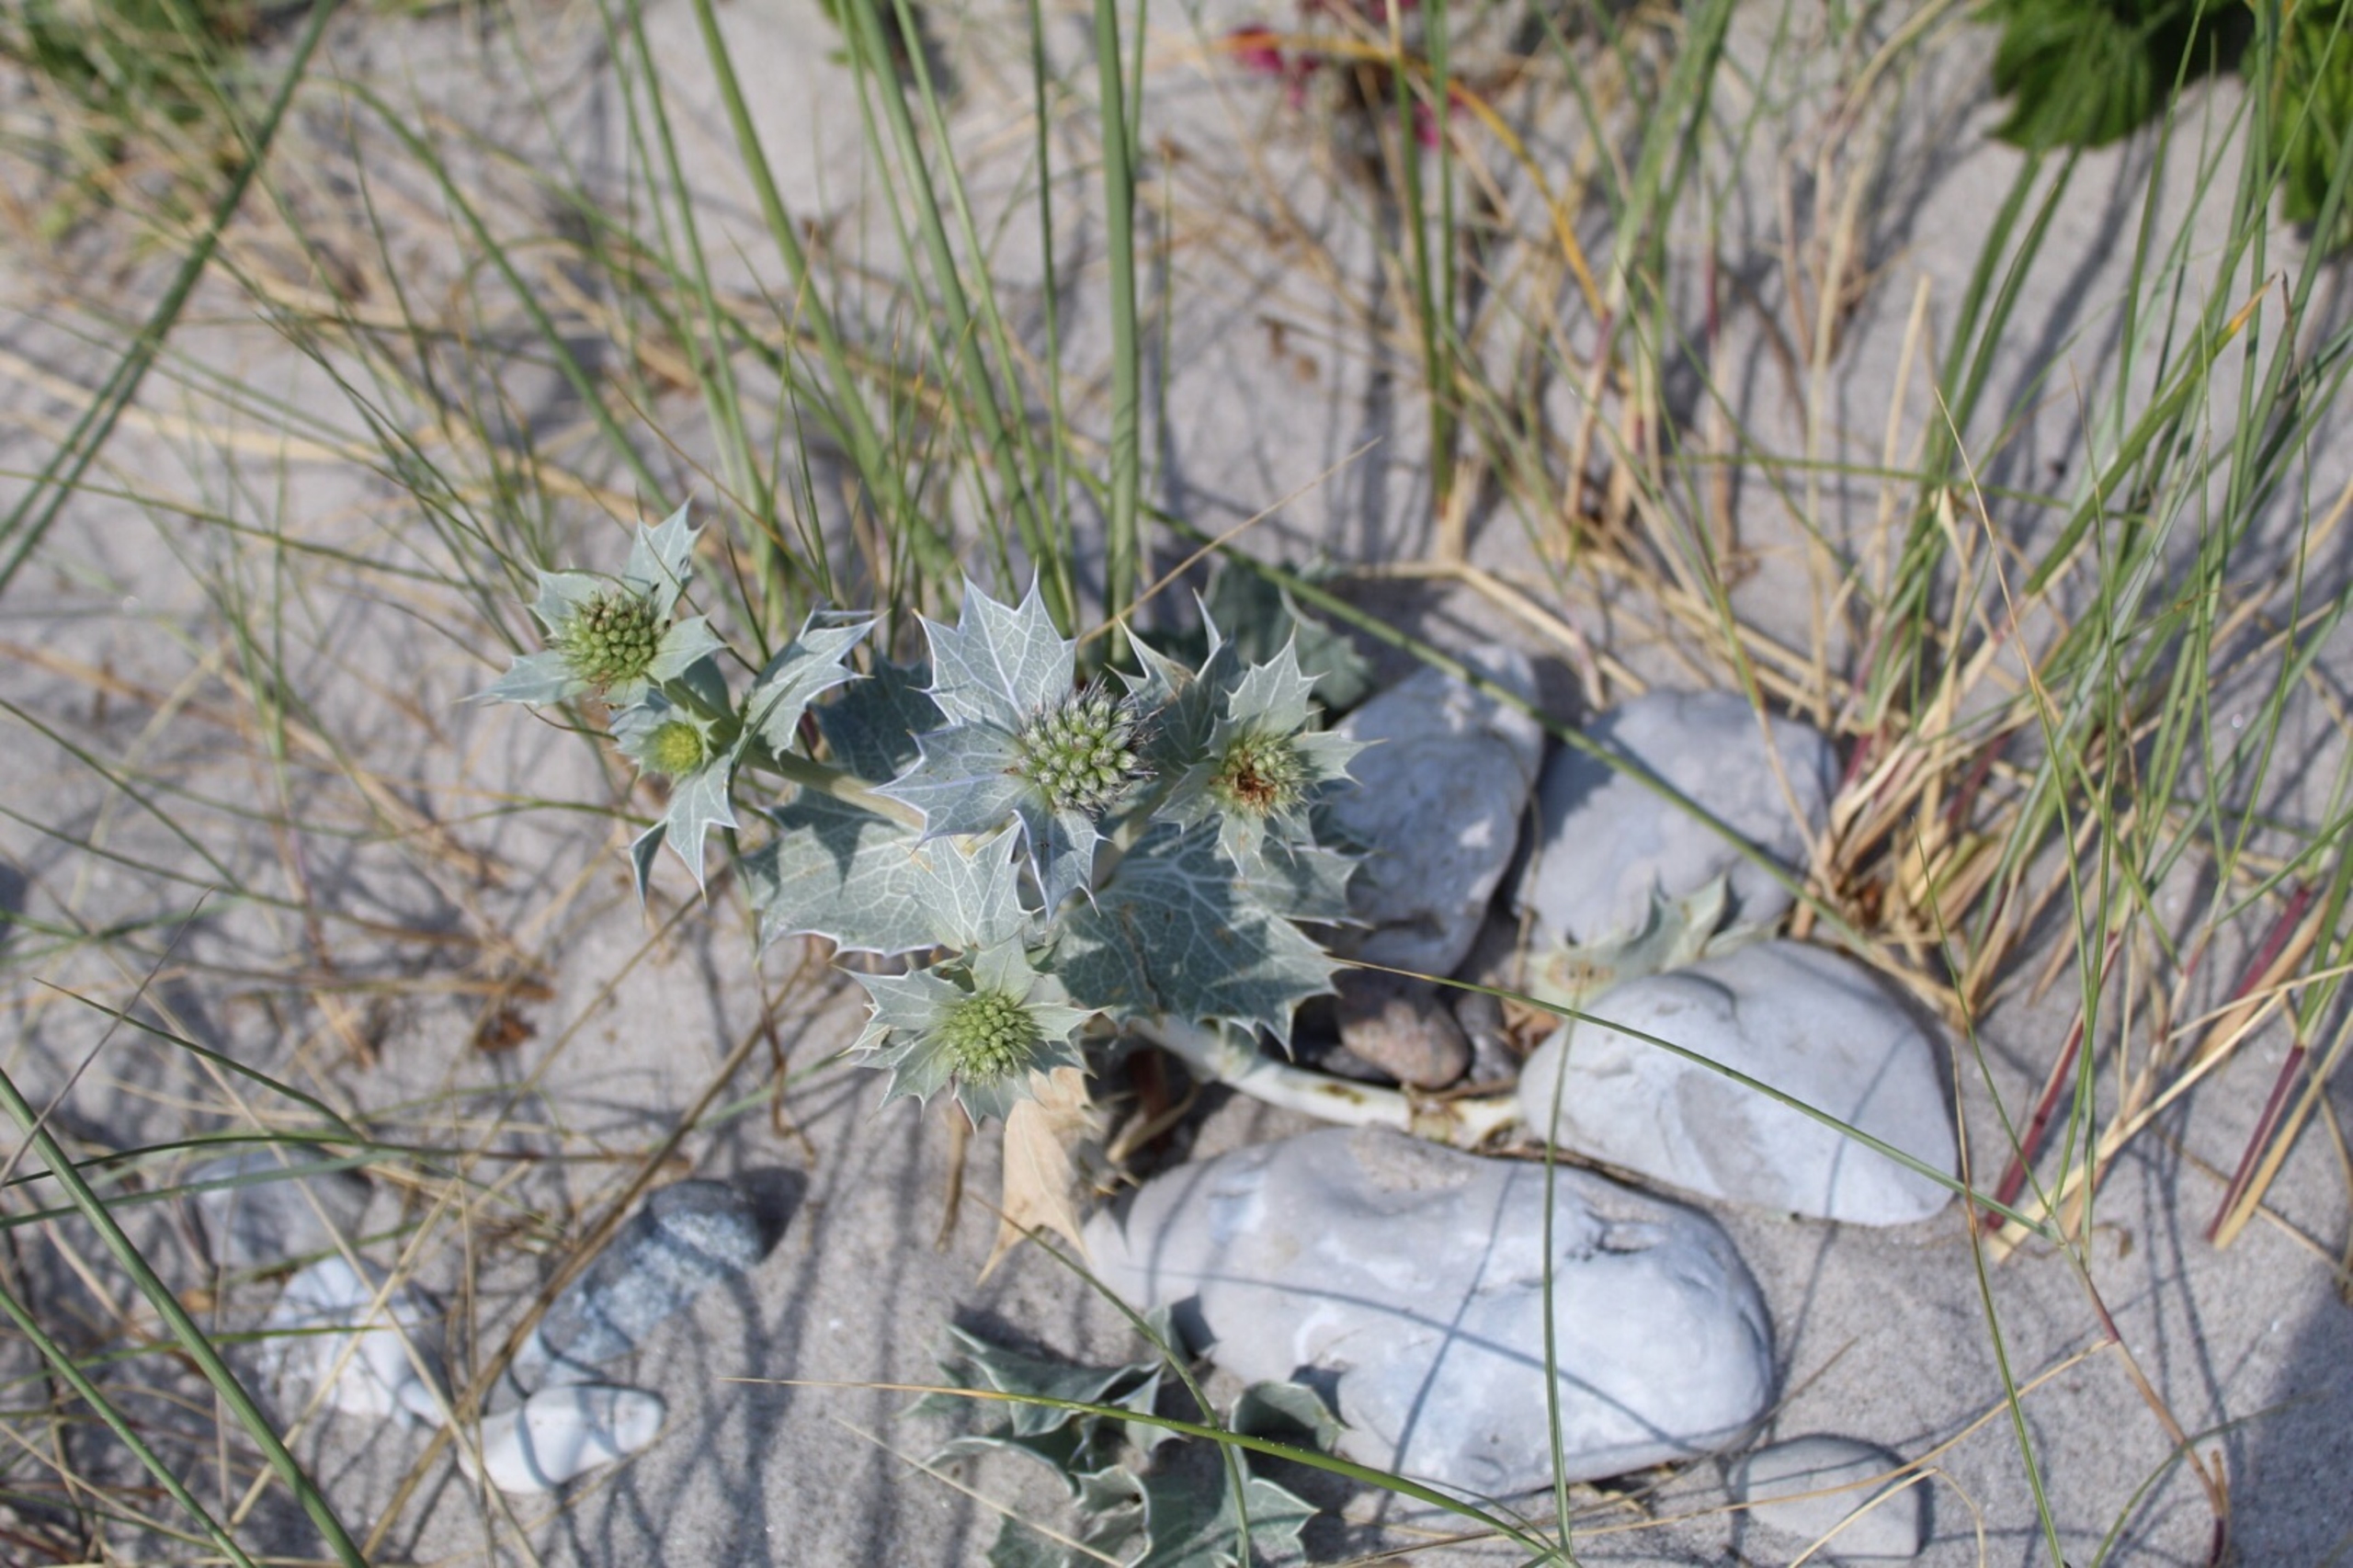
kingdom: Plantae
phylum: Tracheophyta
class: Magnoliopsida
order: Apiales
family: Apiaceae
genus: Eryngium
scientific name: Eryngium maritimum
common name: Strand-mandstro
